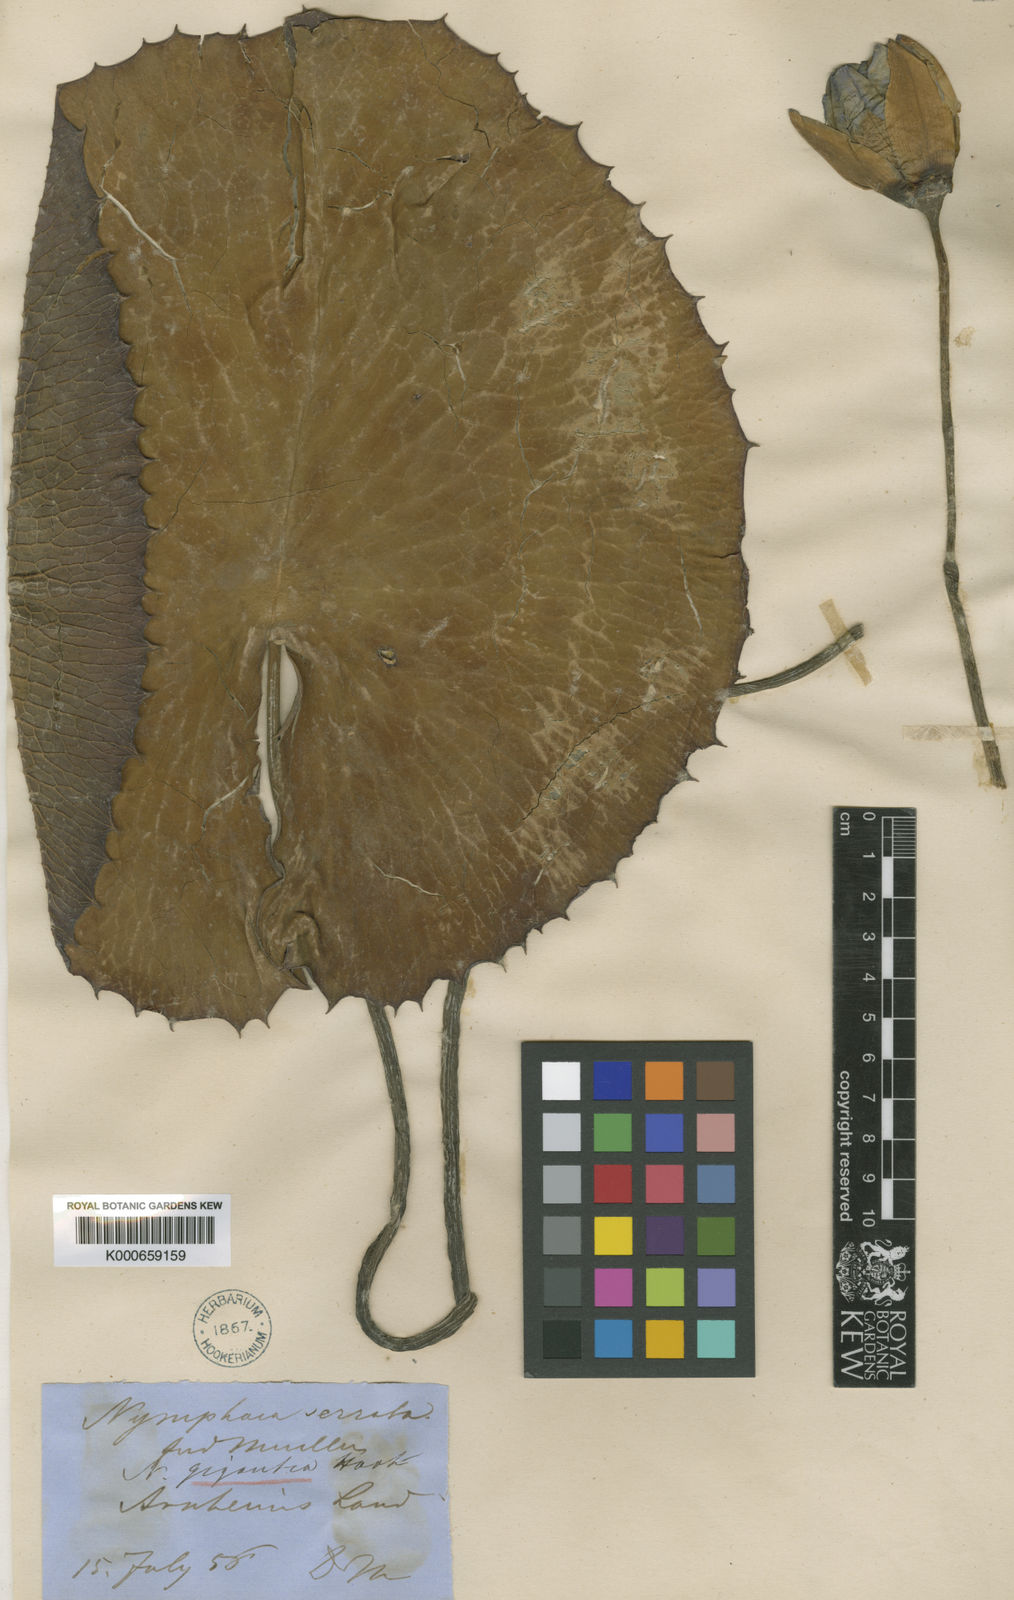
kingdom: Plantae
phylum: Tracheophyta
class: Magnoliopsida
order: Nymphaeales
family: Nymphaeaceae
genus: Nymphaea
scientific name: Nymphaea gigantea
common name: Giant water-lily
